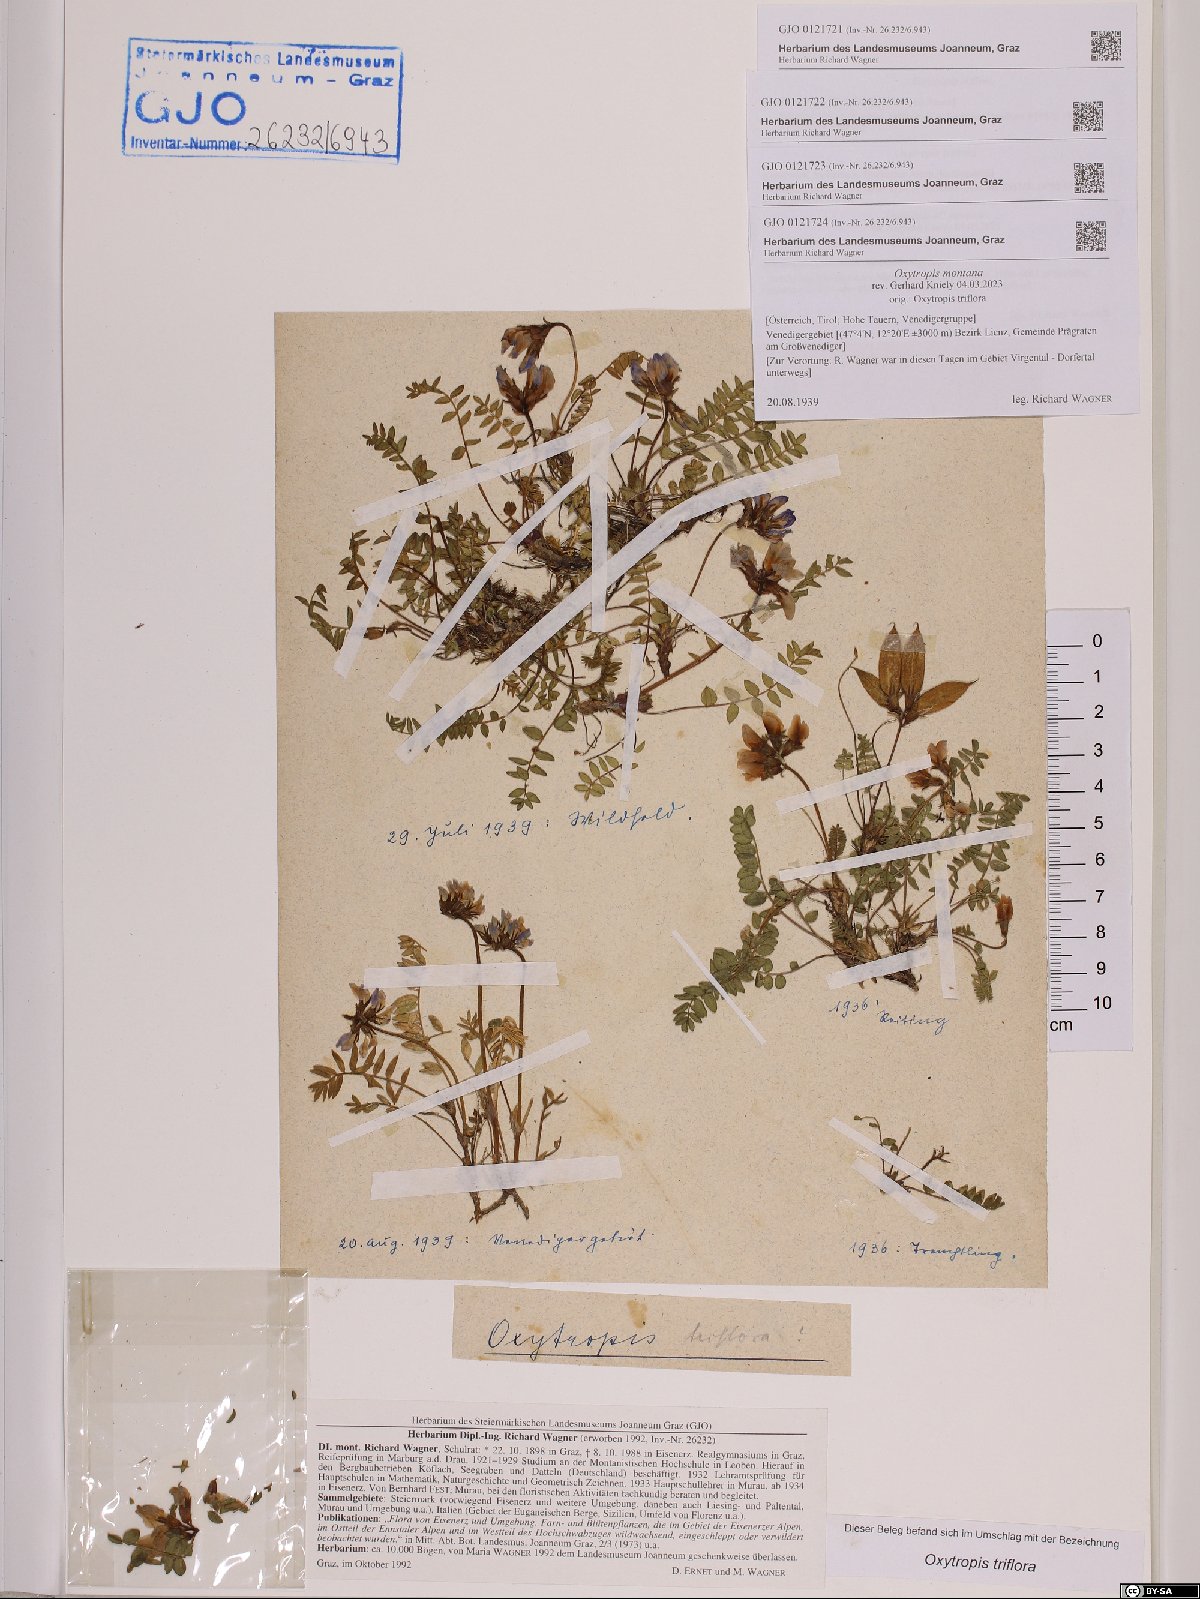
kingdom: Plantae
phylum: Tracheophyta
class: Magnoliopsida
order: Fabales
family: Fabaceae
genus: Oxytropis
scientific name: Oxytropis triflora
